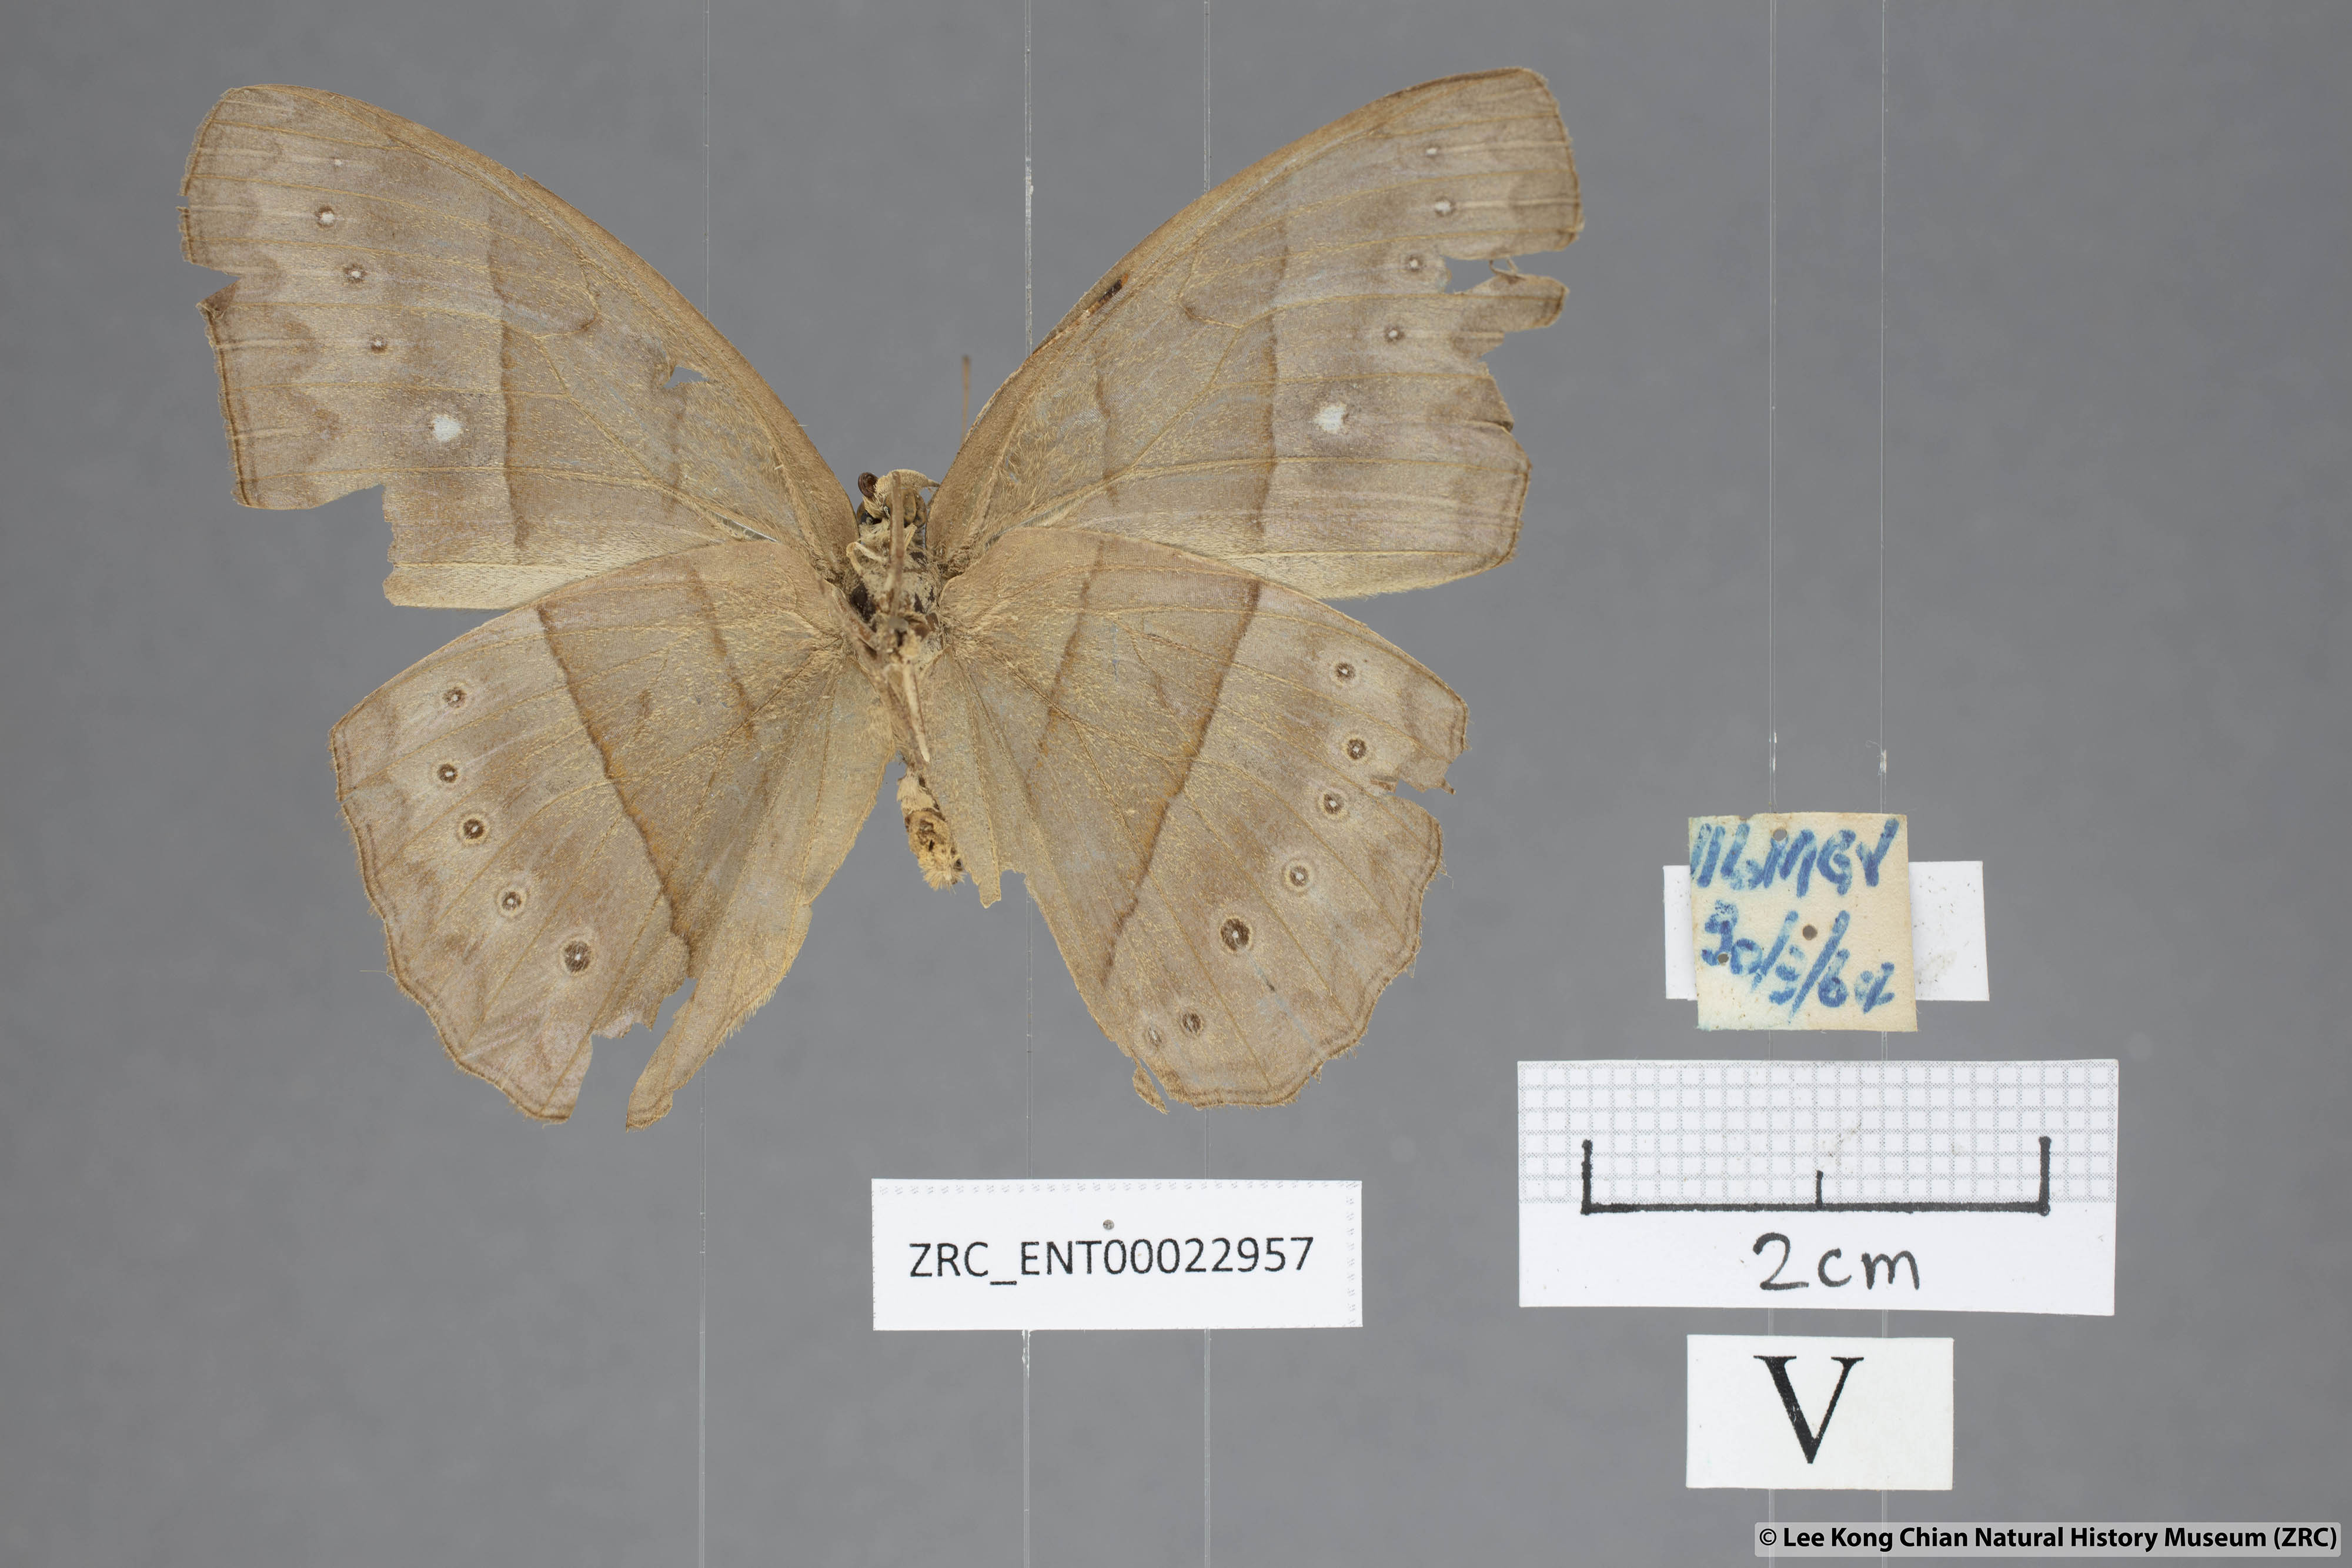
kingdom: Animalia
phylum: Arthropoda
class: Insecta
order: Lepidoptera
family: Nymphalidae
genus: Mycalesis
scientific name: Mycalesis mnasicles
